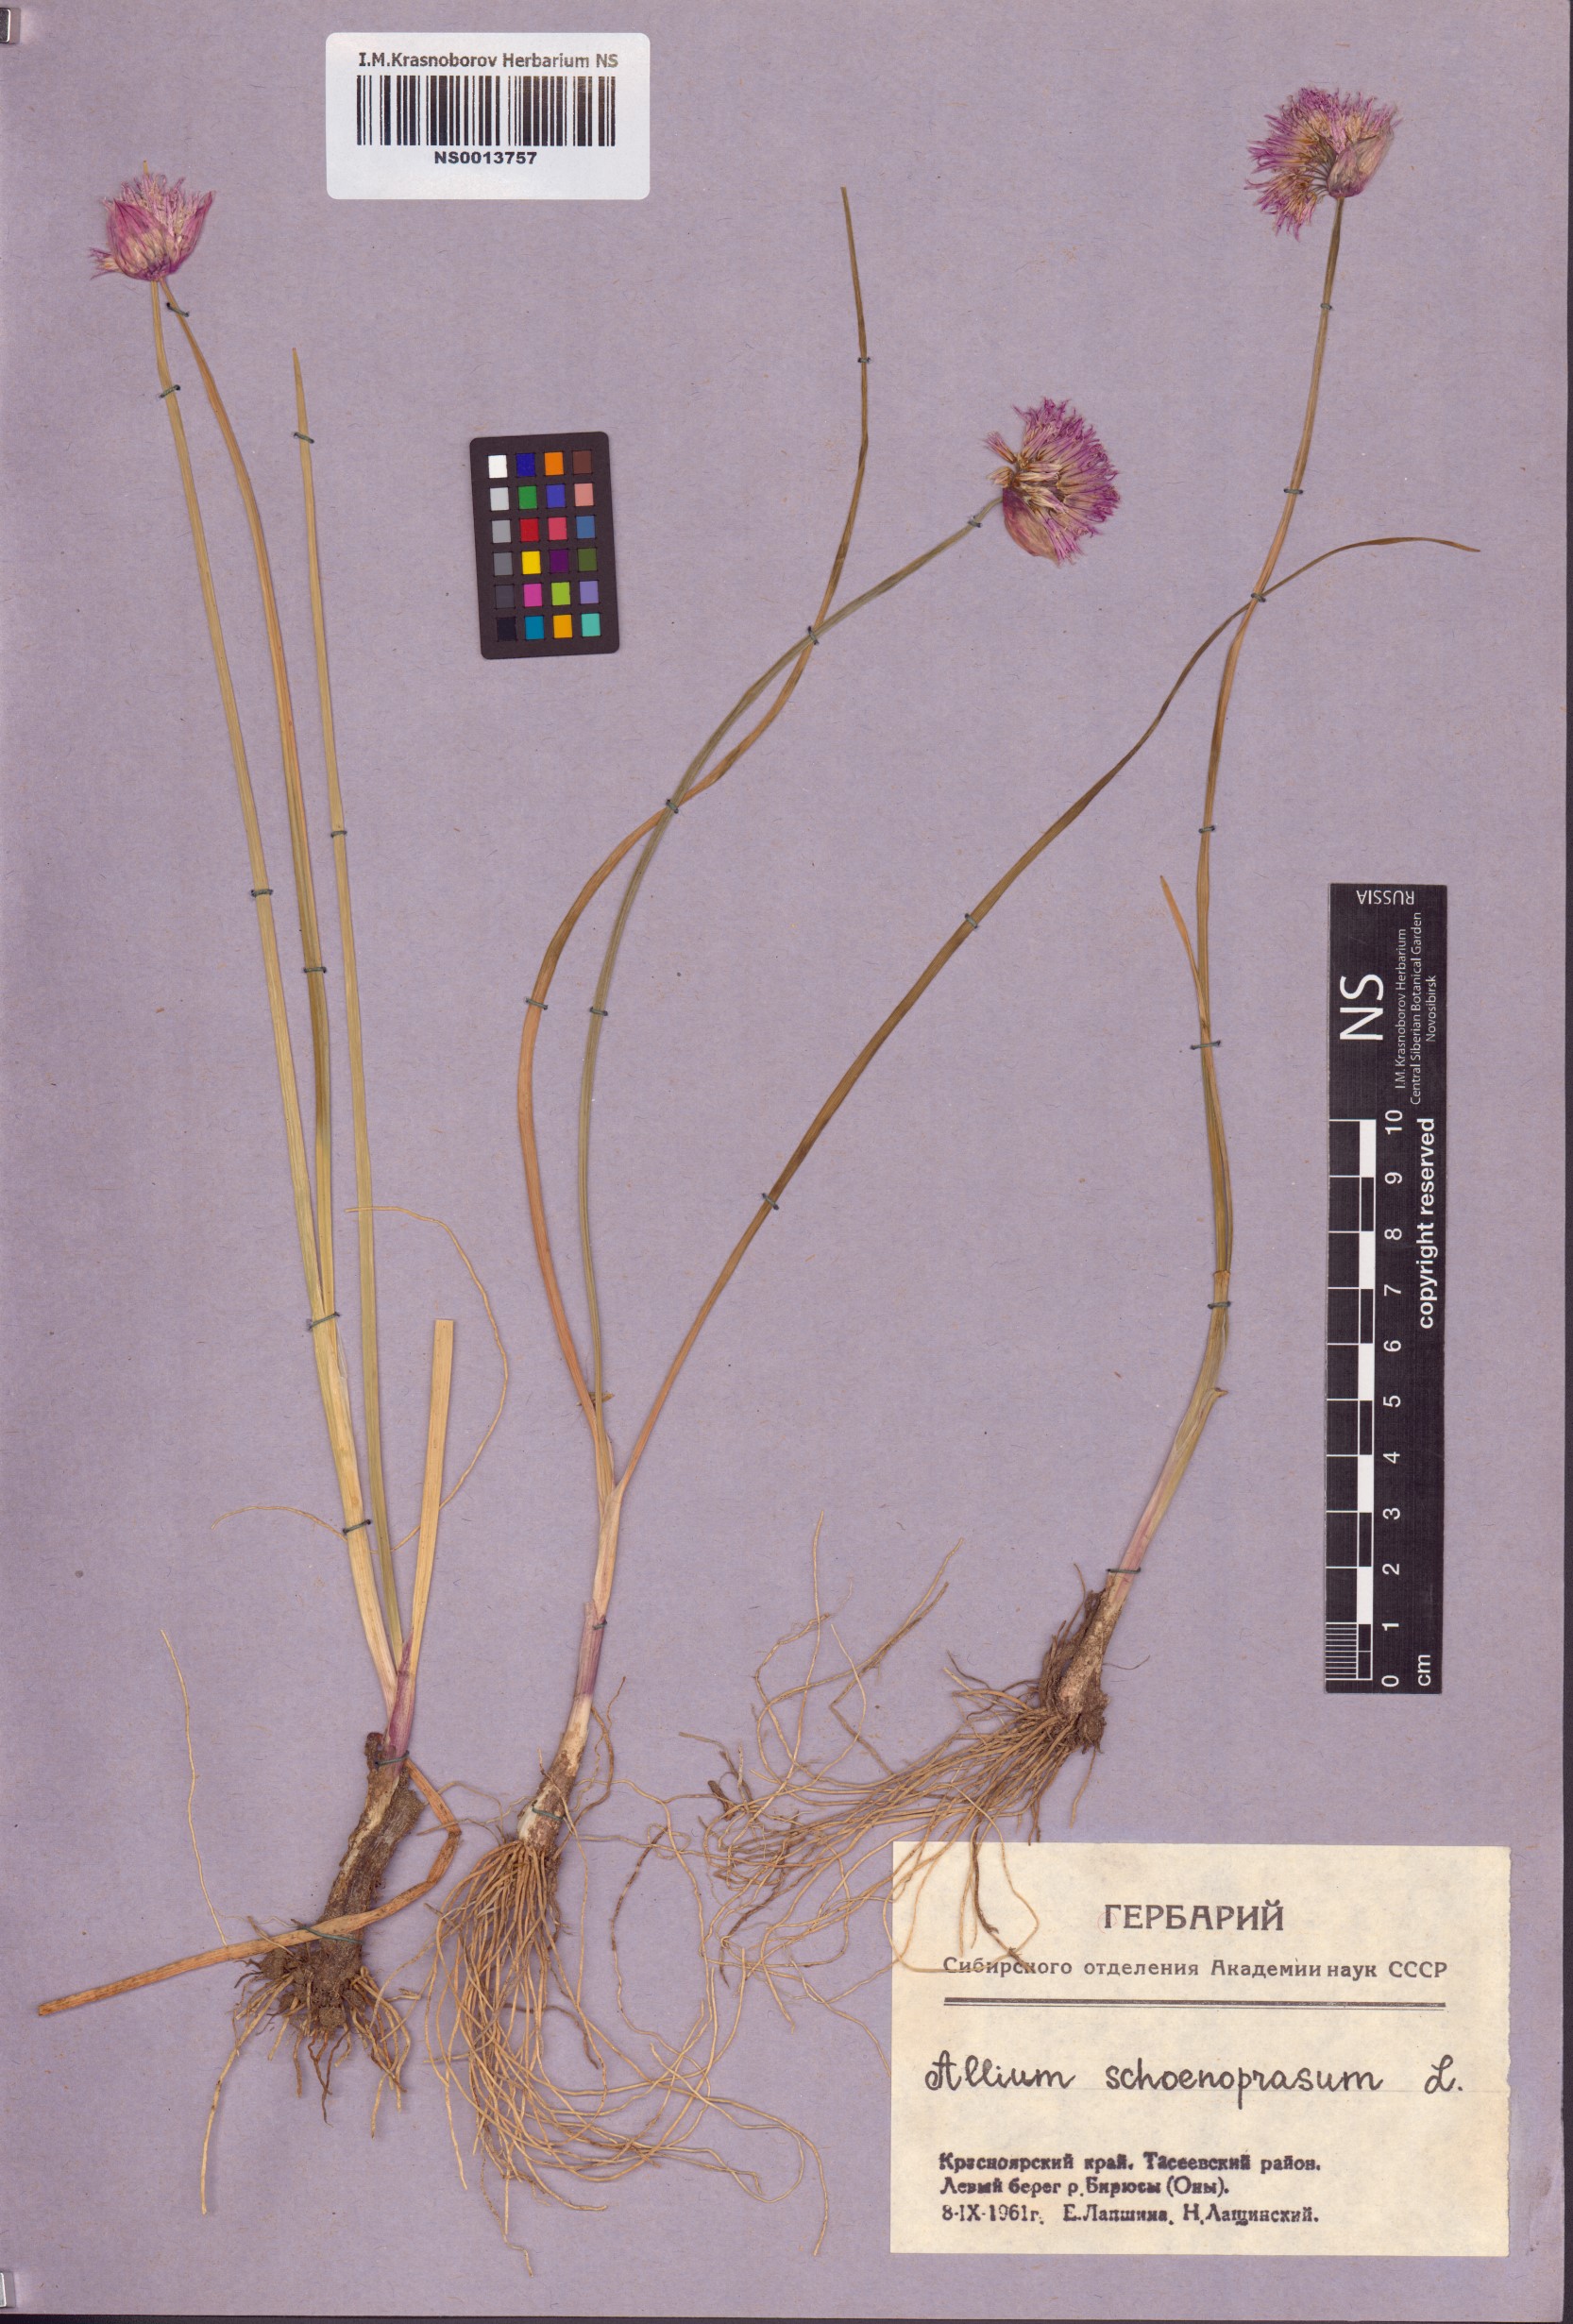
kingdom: Plantae
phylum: Tracheophyta
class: Liliopsida
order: Asparagales
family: Amaryllidaceae
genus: Allium
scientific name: Allium schoenoprasum
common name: Chives
